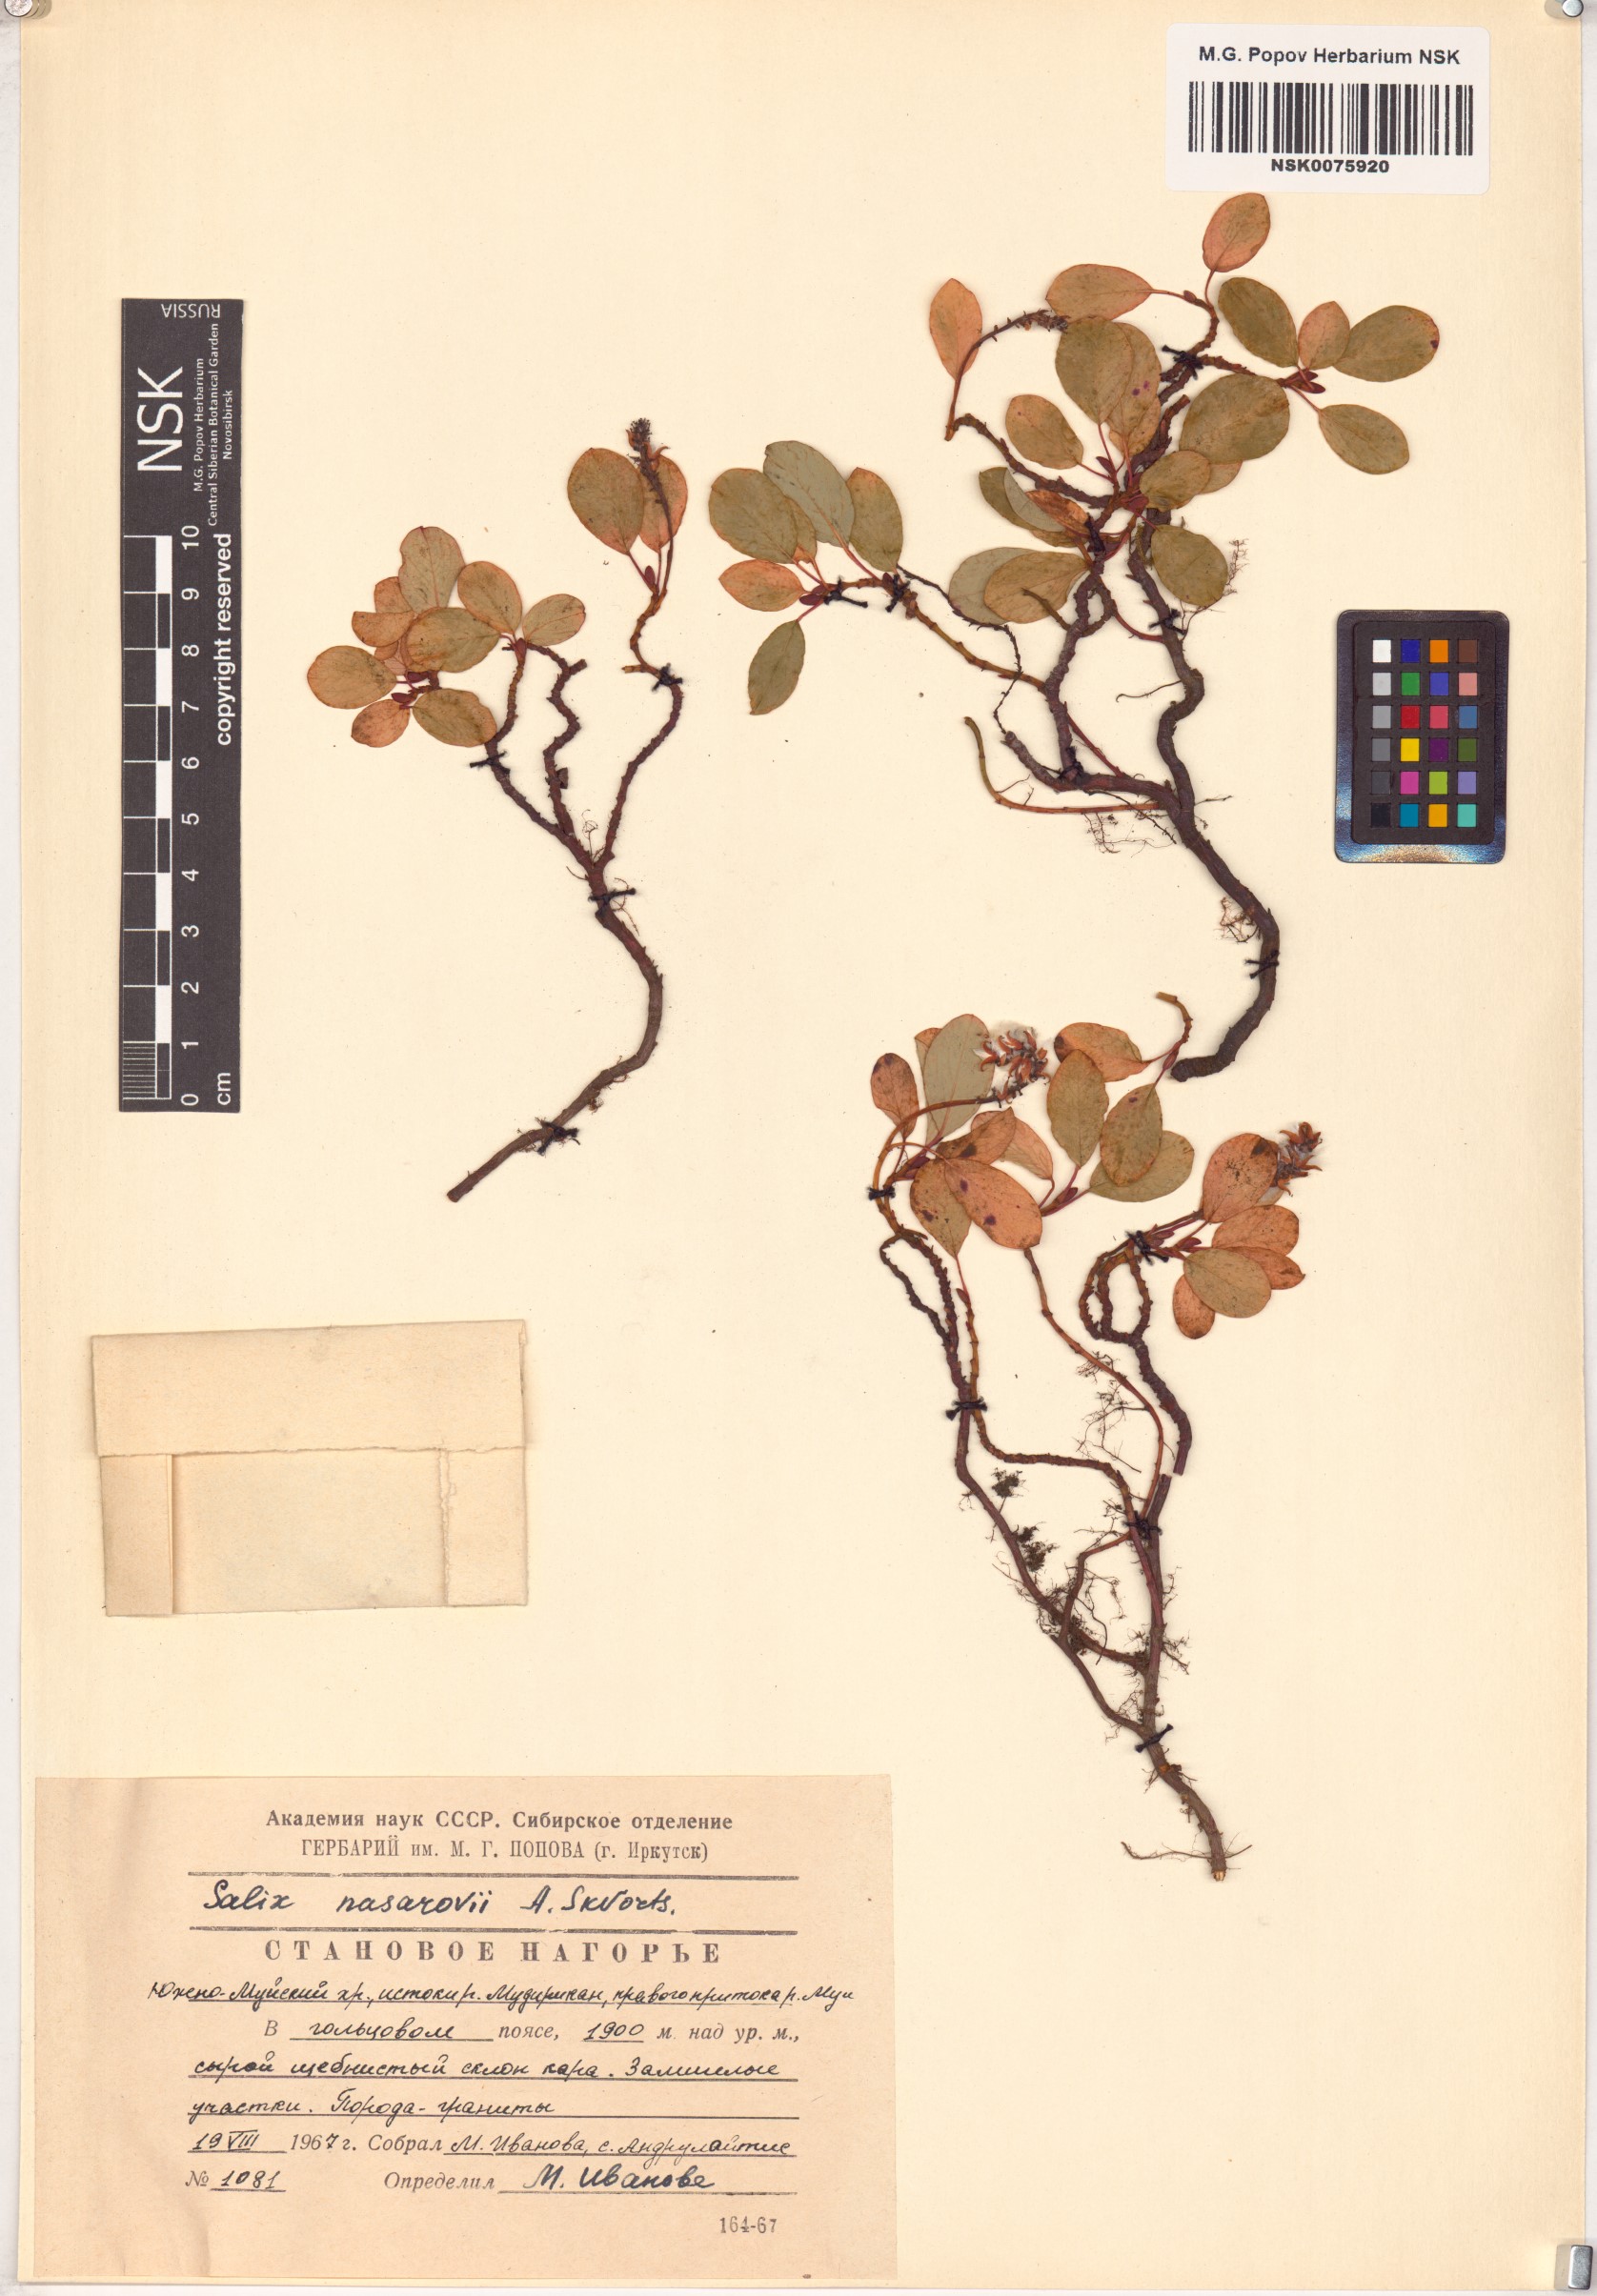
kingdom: Plantae
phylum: Tracheophyta
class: Magnoliopsida
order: Malpighiales
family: Salicaceae
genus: Salix
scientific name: Salix nasarovii
